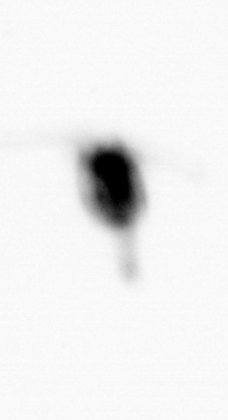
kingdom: Animalia
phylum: Arthropoda
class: Copepoda
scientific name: Copepoda
